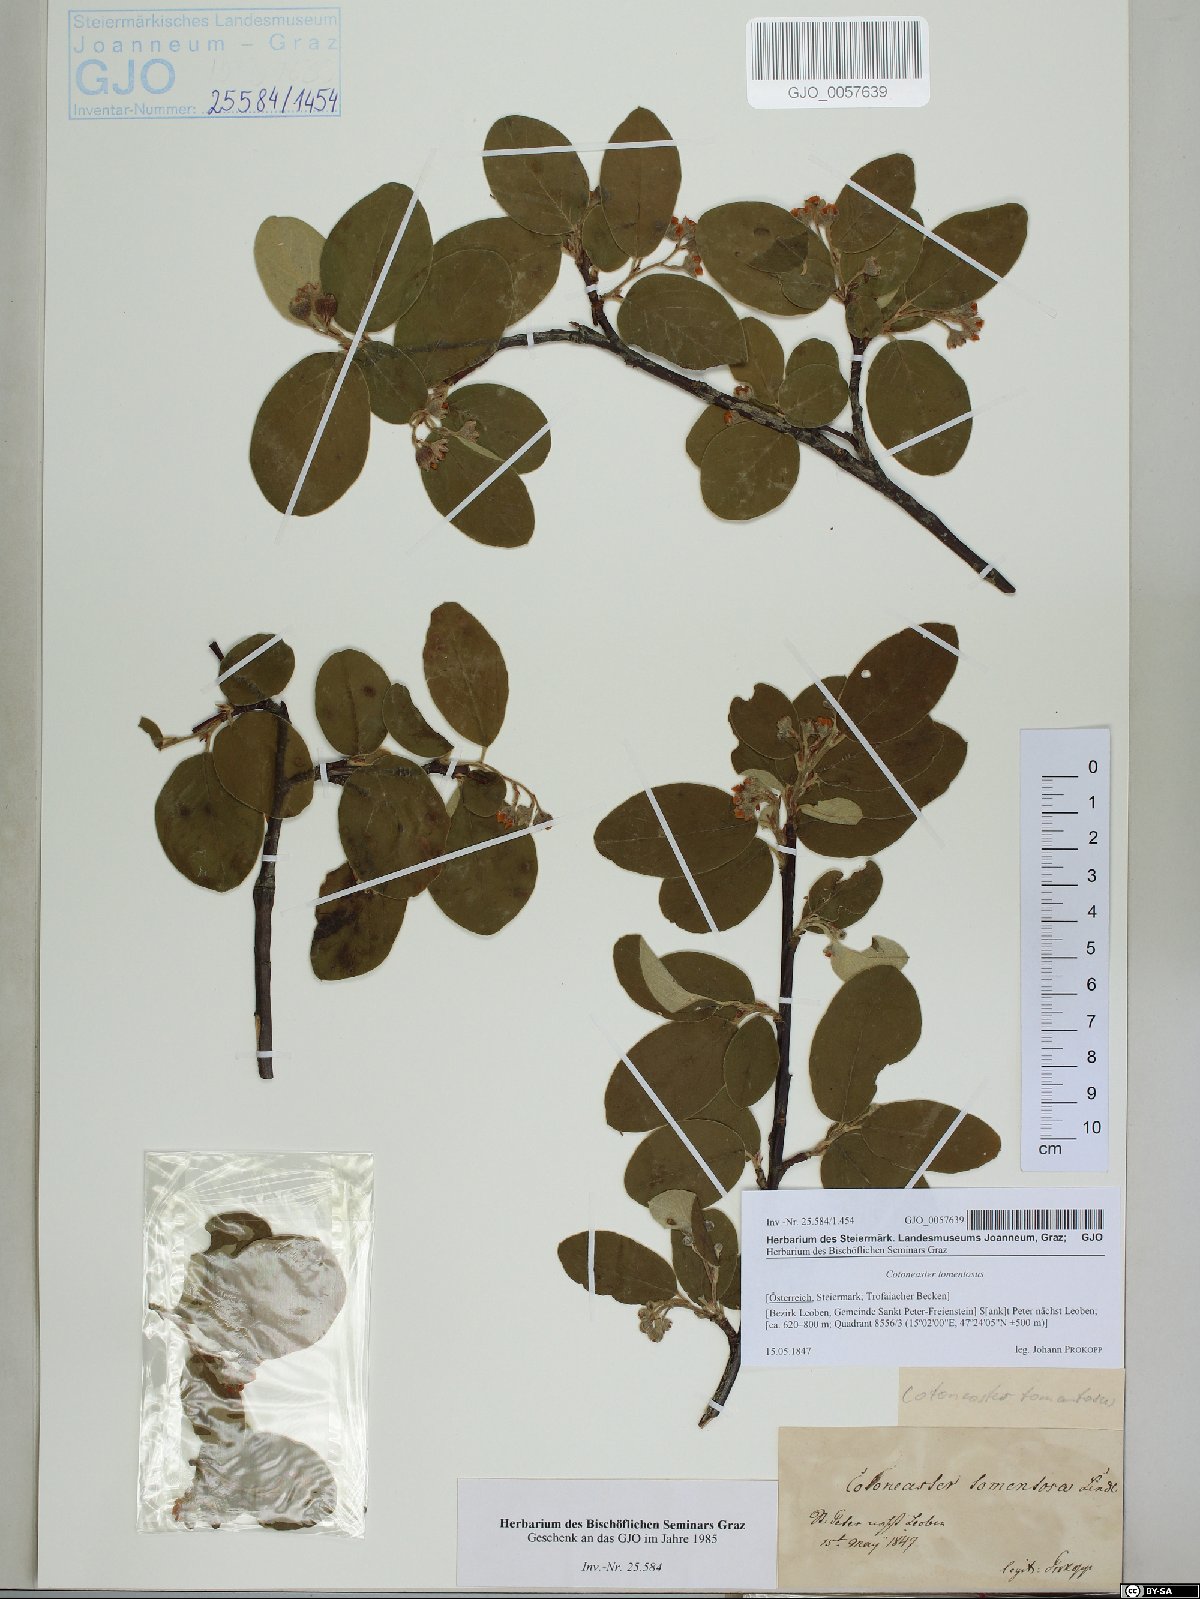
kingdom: Plantae
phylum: Tracheophyta
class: Magnoliopsida
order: Rosales
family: Rosaceae
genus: Cotoneaster
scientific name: Cotoneaster tomentosus
